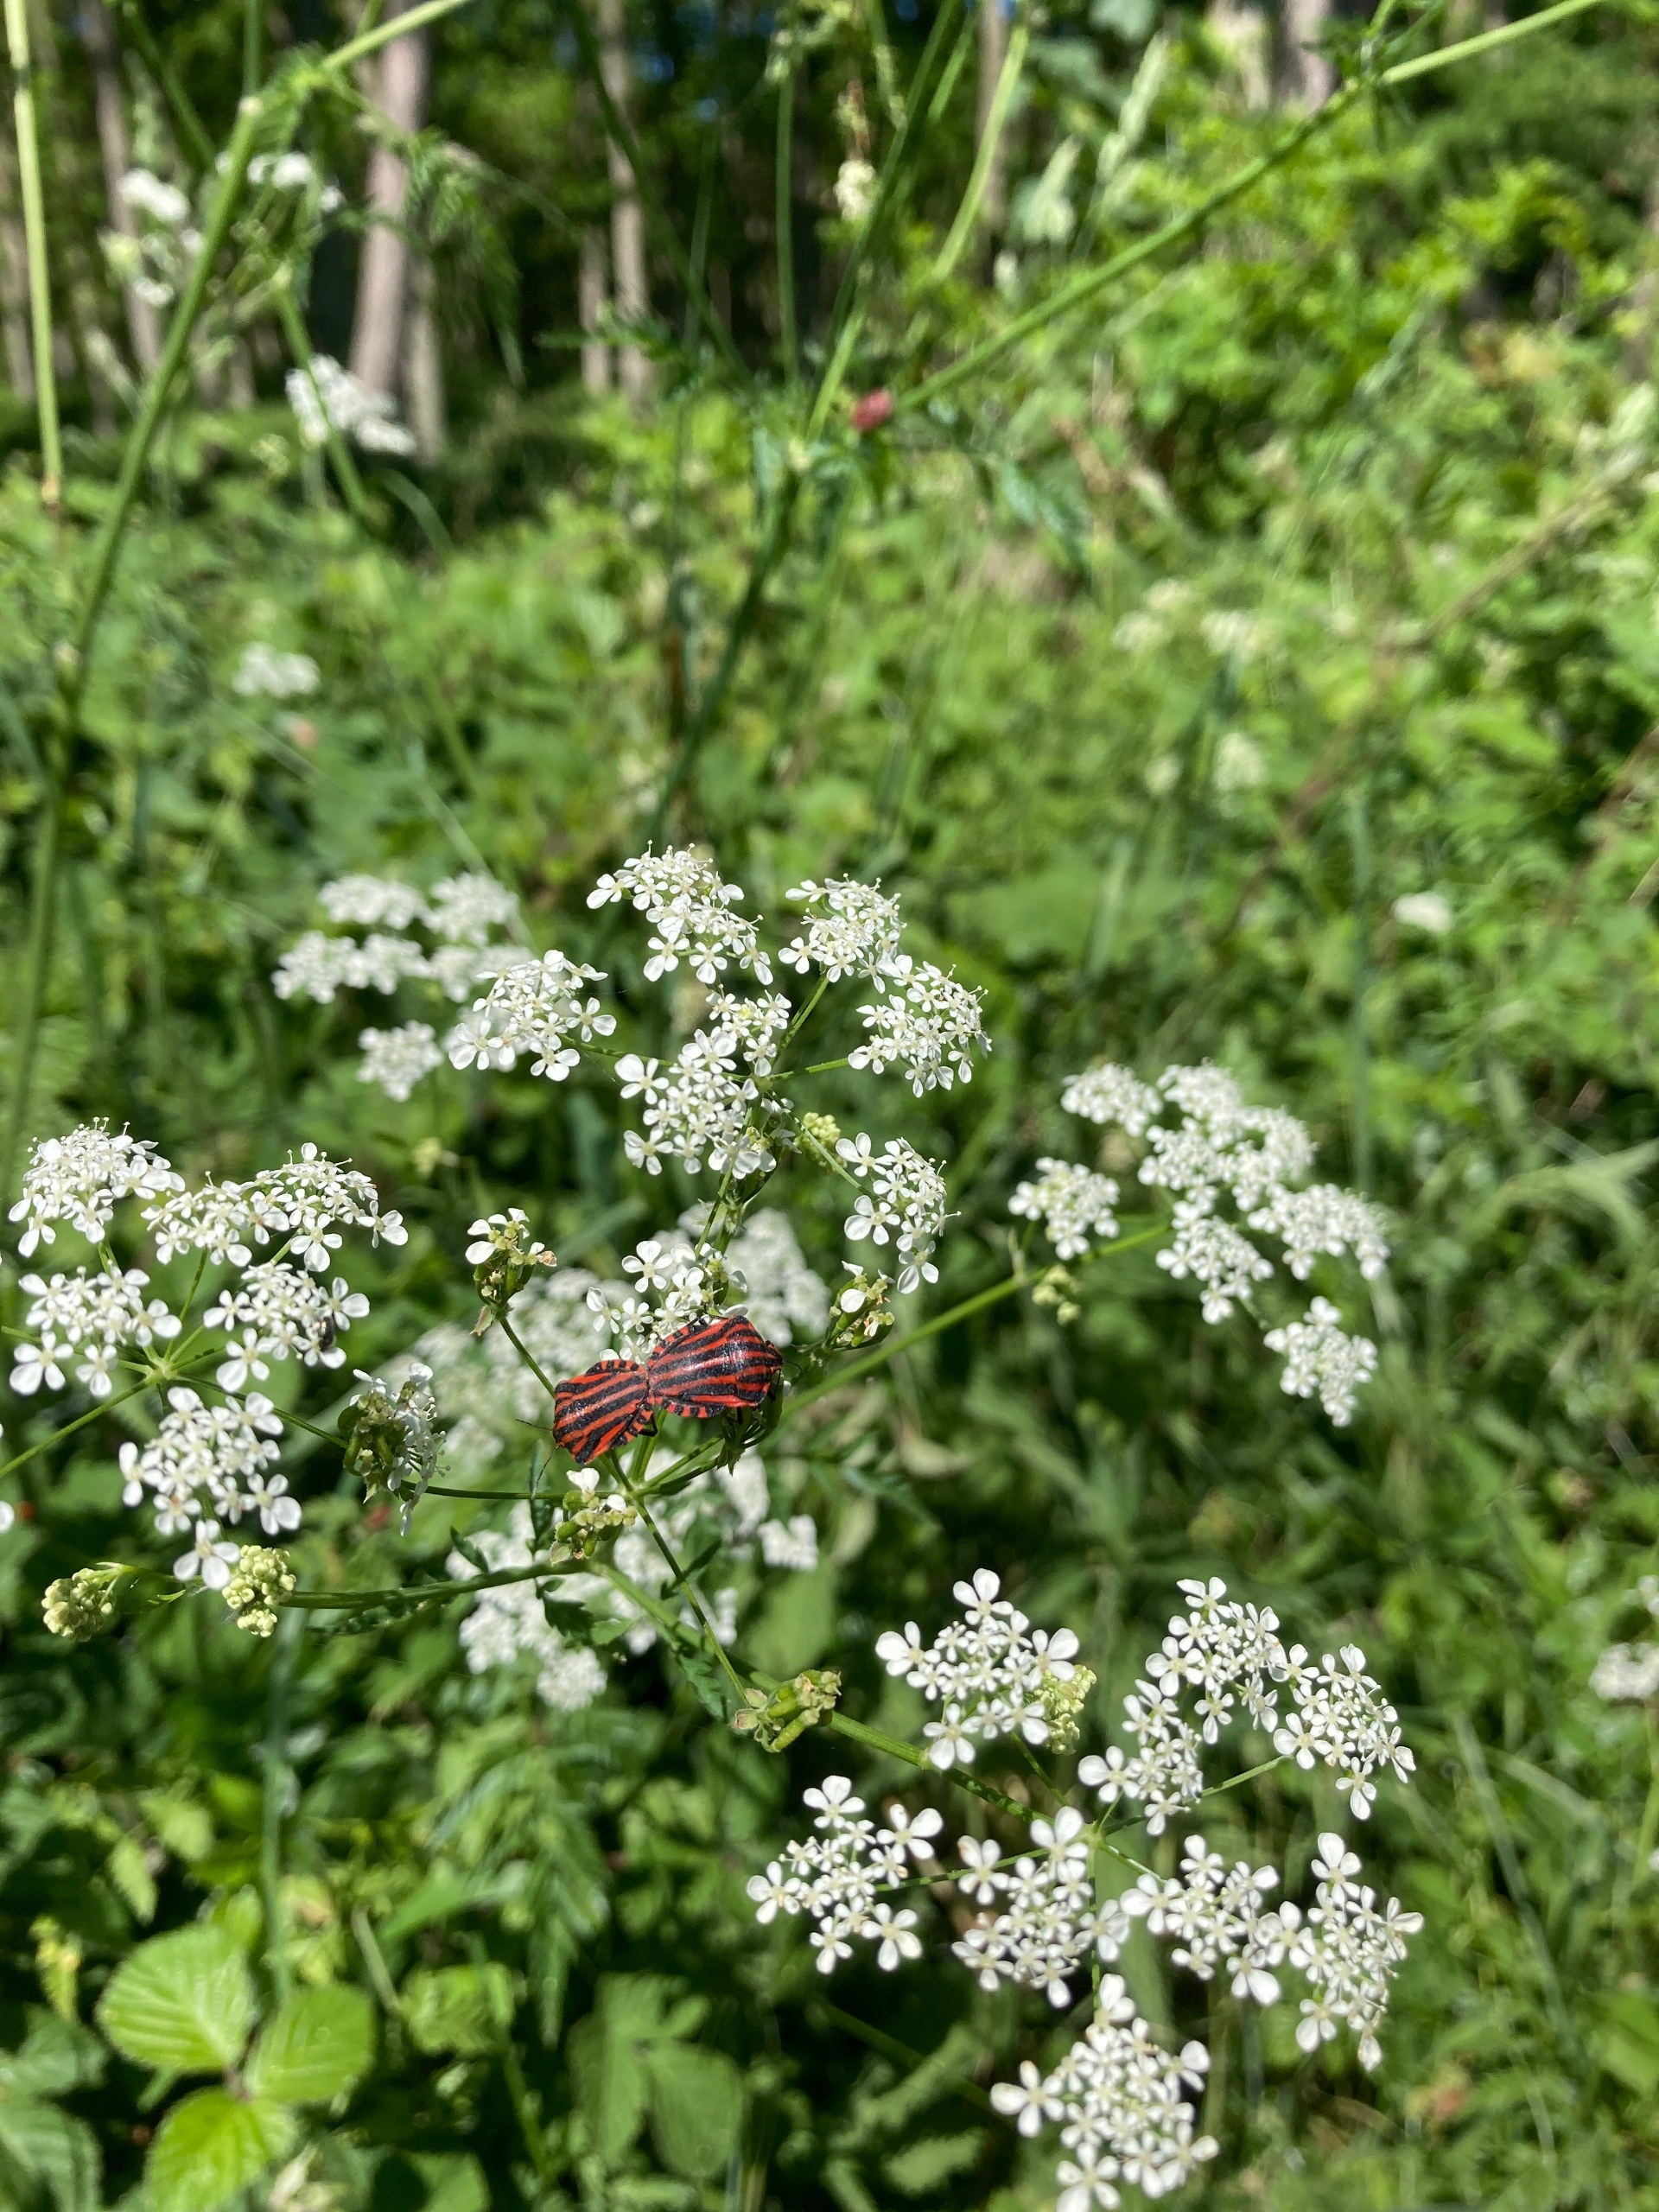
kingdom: Animalia
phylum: Arthropoda
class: Insecta
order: Hemiptera
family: Pentatomidae
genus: Graphosoma
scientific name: Graphosoma italicum
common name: Stribetæge
